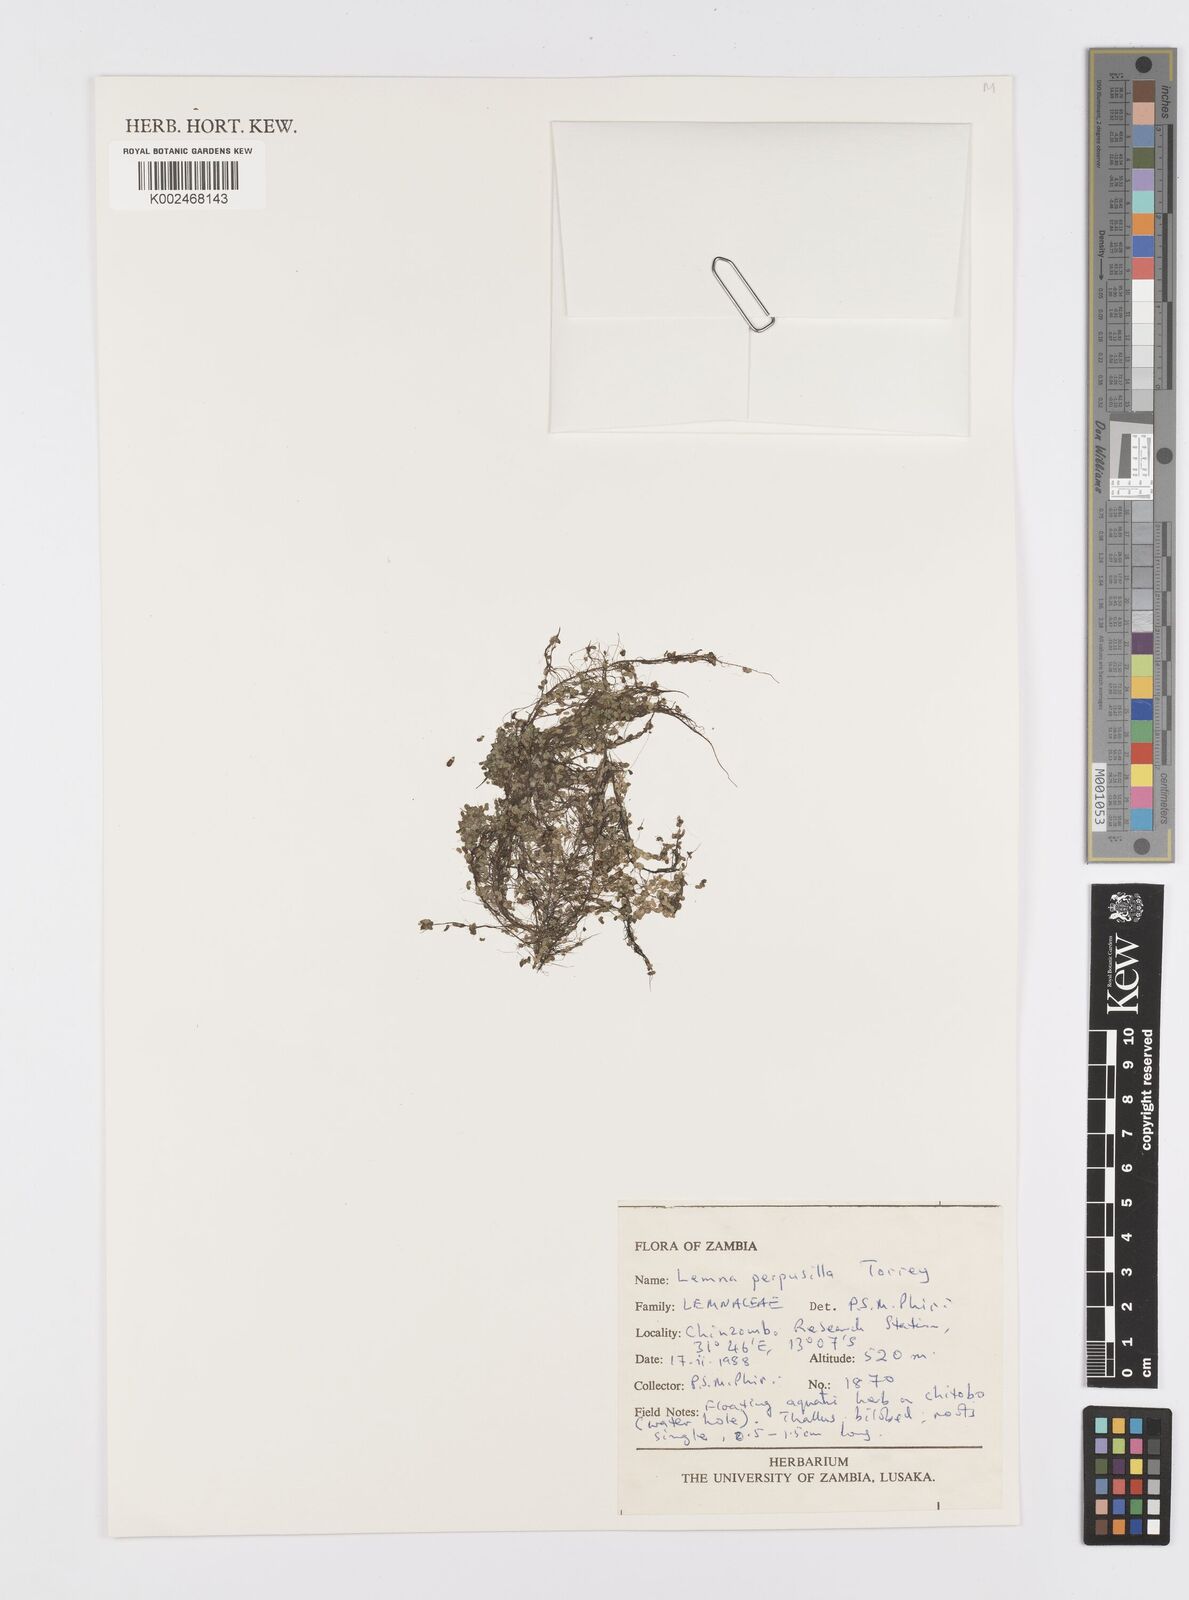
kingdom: Plantae
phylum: Tracheophyta
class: Liliopsida
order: Alismatales
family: Araceae
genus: Lemna
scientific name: Lemna aequinoctialis
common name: Duckweed
